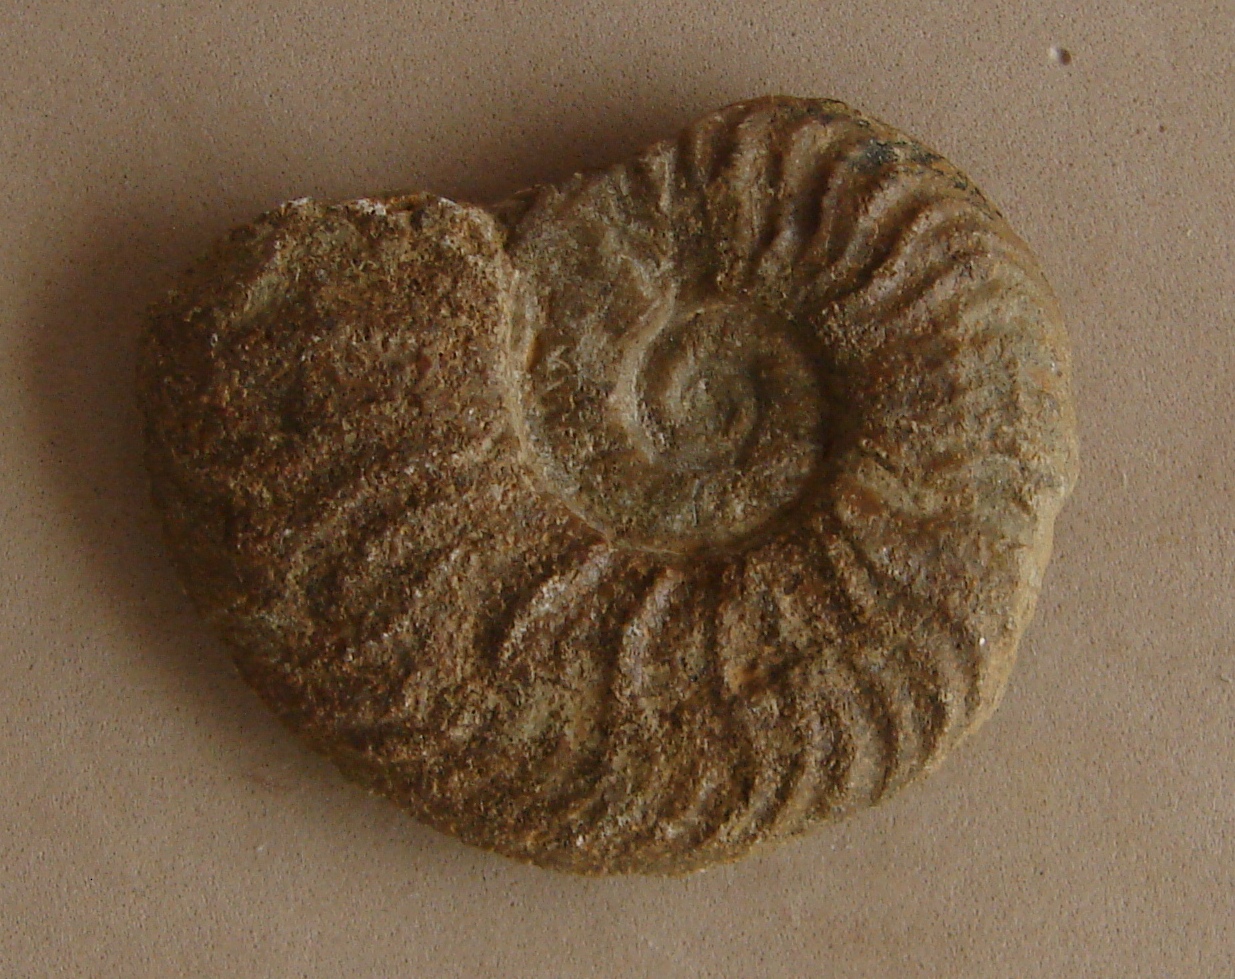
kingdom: Animalia
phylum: Mollusca
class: Cephalopoda
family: Hildoceratidae
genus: Pleydellia
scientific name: Pleydellia aalensis
